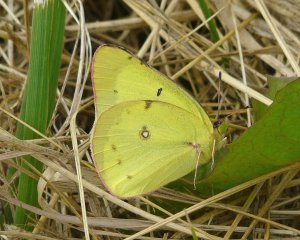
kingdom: Animalia
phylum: Arthropoda
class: Insecta
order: Lepidoptera
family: Pieridae
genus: Colias
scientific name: Colias philodice
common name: Clouded Sulphur
